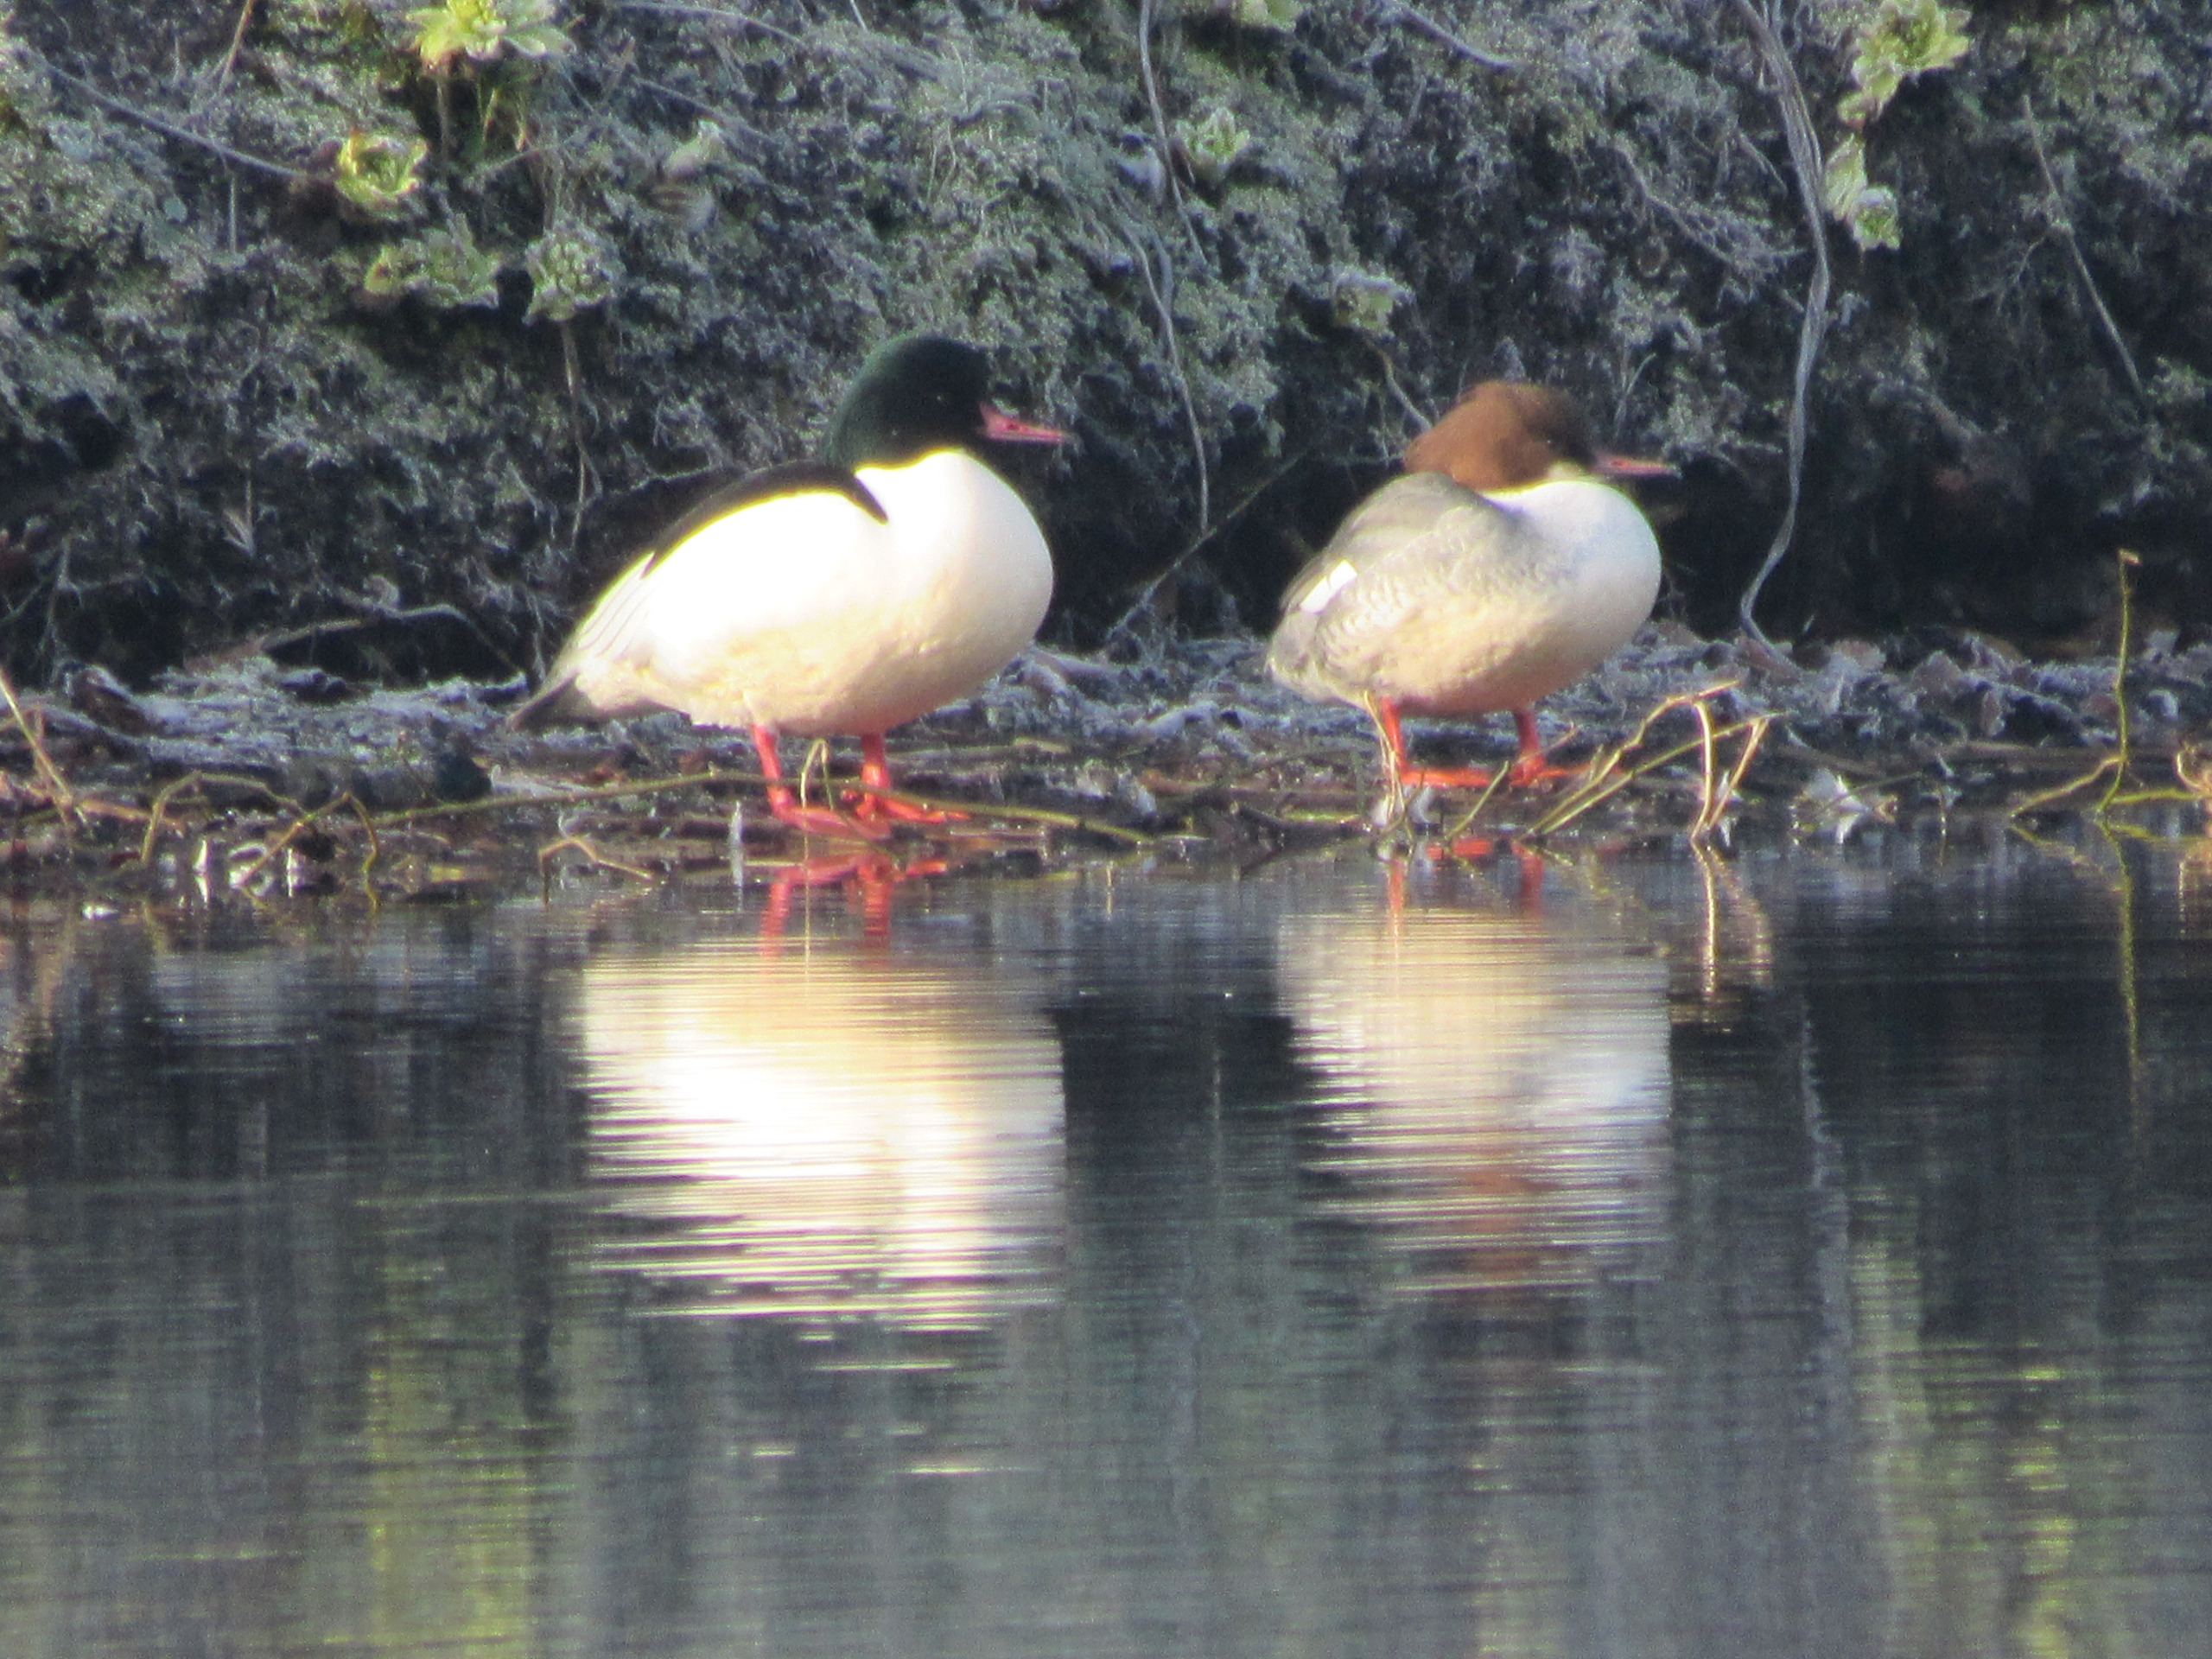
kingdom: Animalia
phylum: Chordata
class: Aves
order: Anseriformes
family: Anatidae
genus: Mergus
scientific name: Mergus merganser
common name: Stor skallesluger
